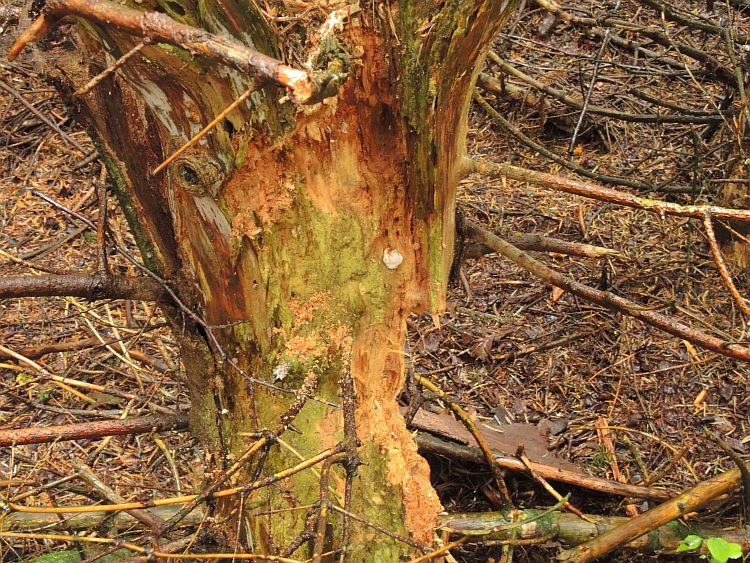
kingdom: Fungi
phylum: Basidiomycota
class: Agaricomycetes
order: Polyporales
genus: Fuscopostia
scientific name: Fuscopostia fragilis
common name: brunende kødporesvamp
